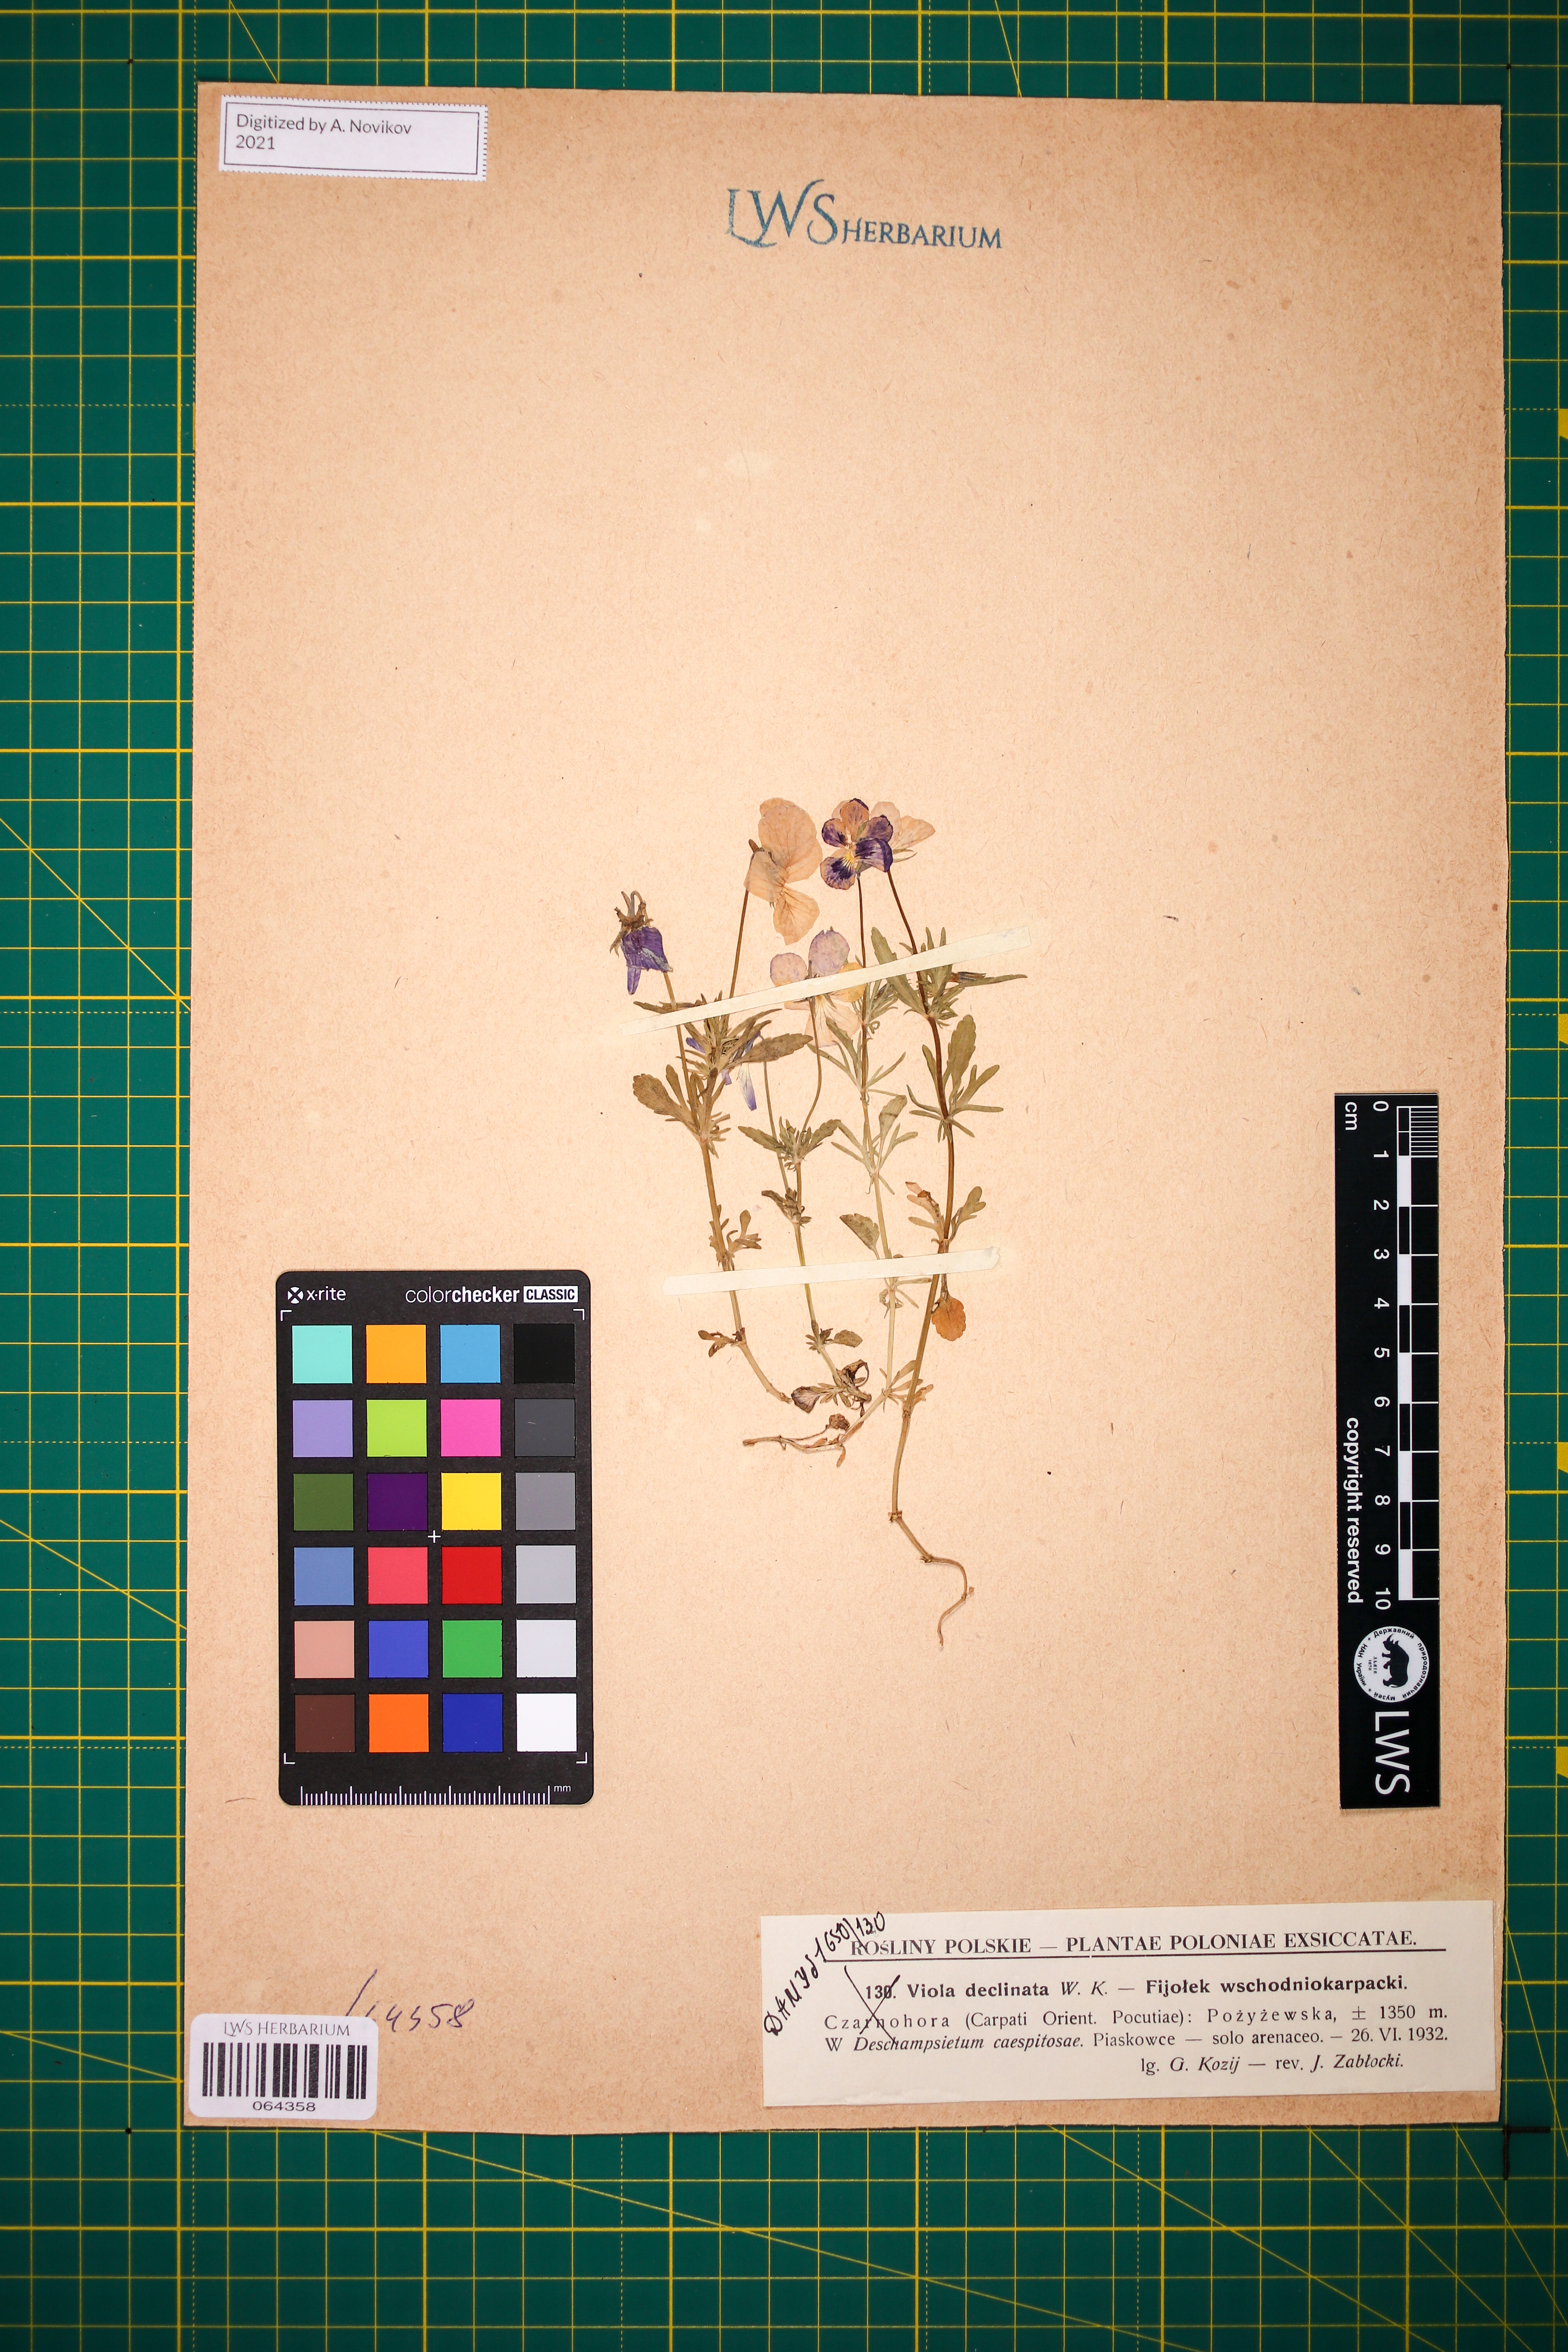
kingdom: Plantae
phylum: Tracheophyta
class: Magnoliopsida
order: Malpighiales
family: Violaceae
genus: Viola
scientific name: Viola declinata
